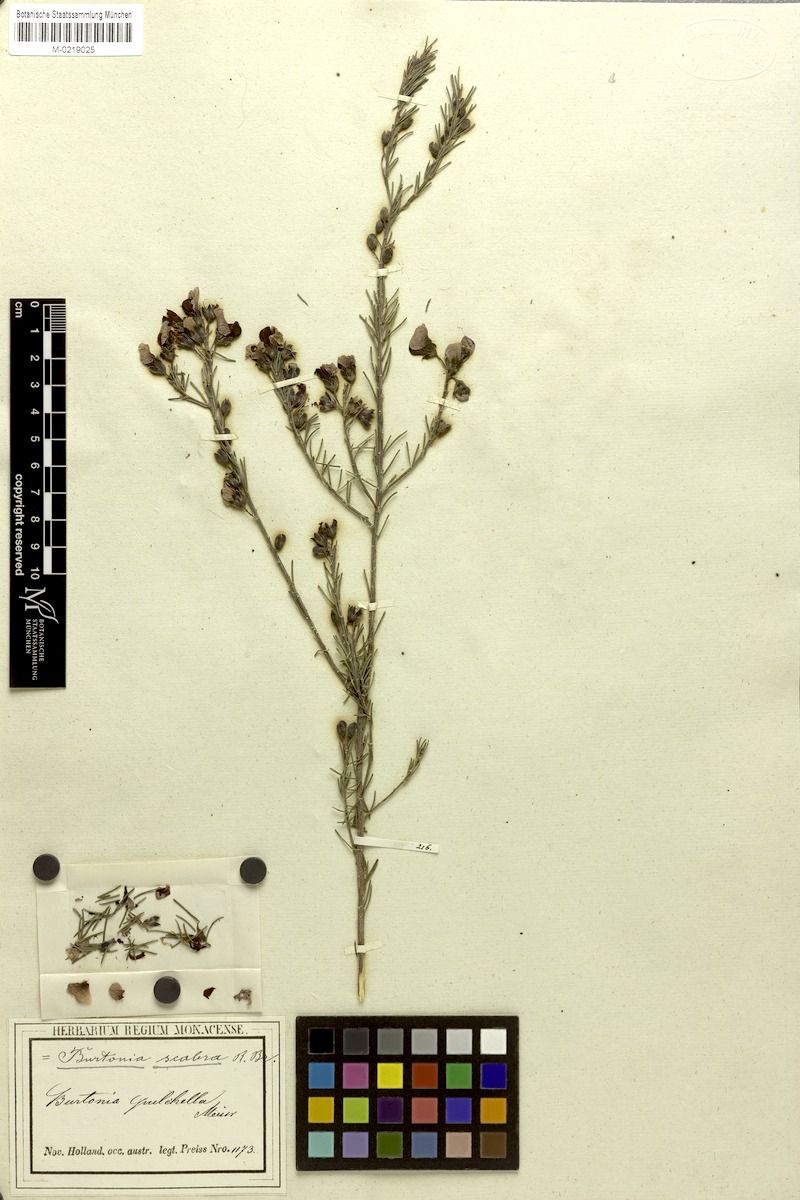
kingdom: Plantae
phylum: Tracheophyta
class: Magnoliopsida
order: Fabales
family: Fabaceae
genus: Gompholobium
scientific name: Gompholobium scabrum
